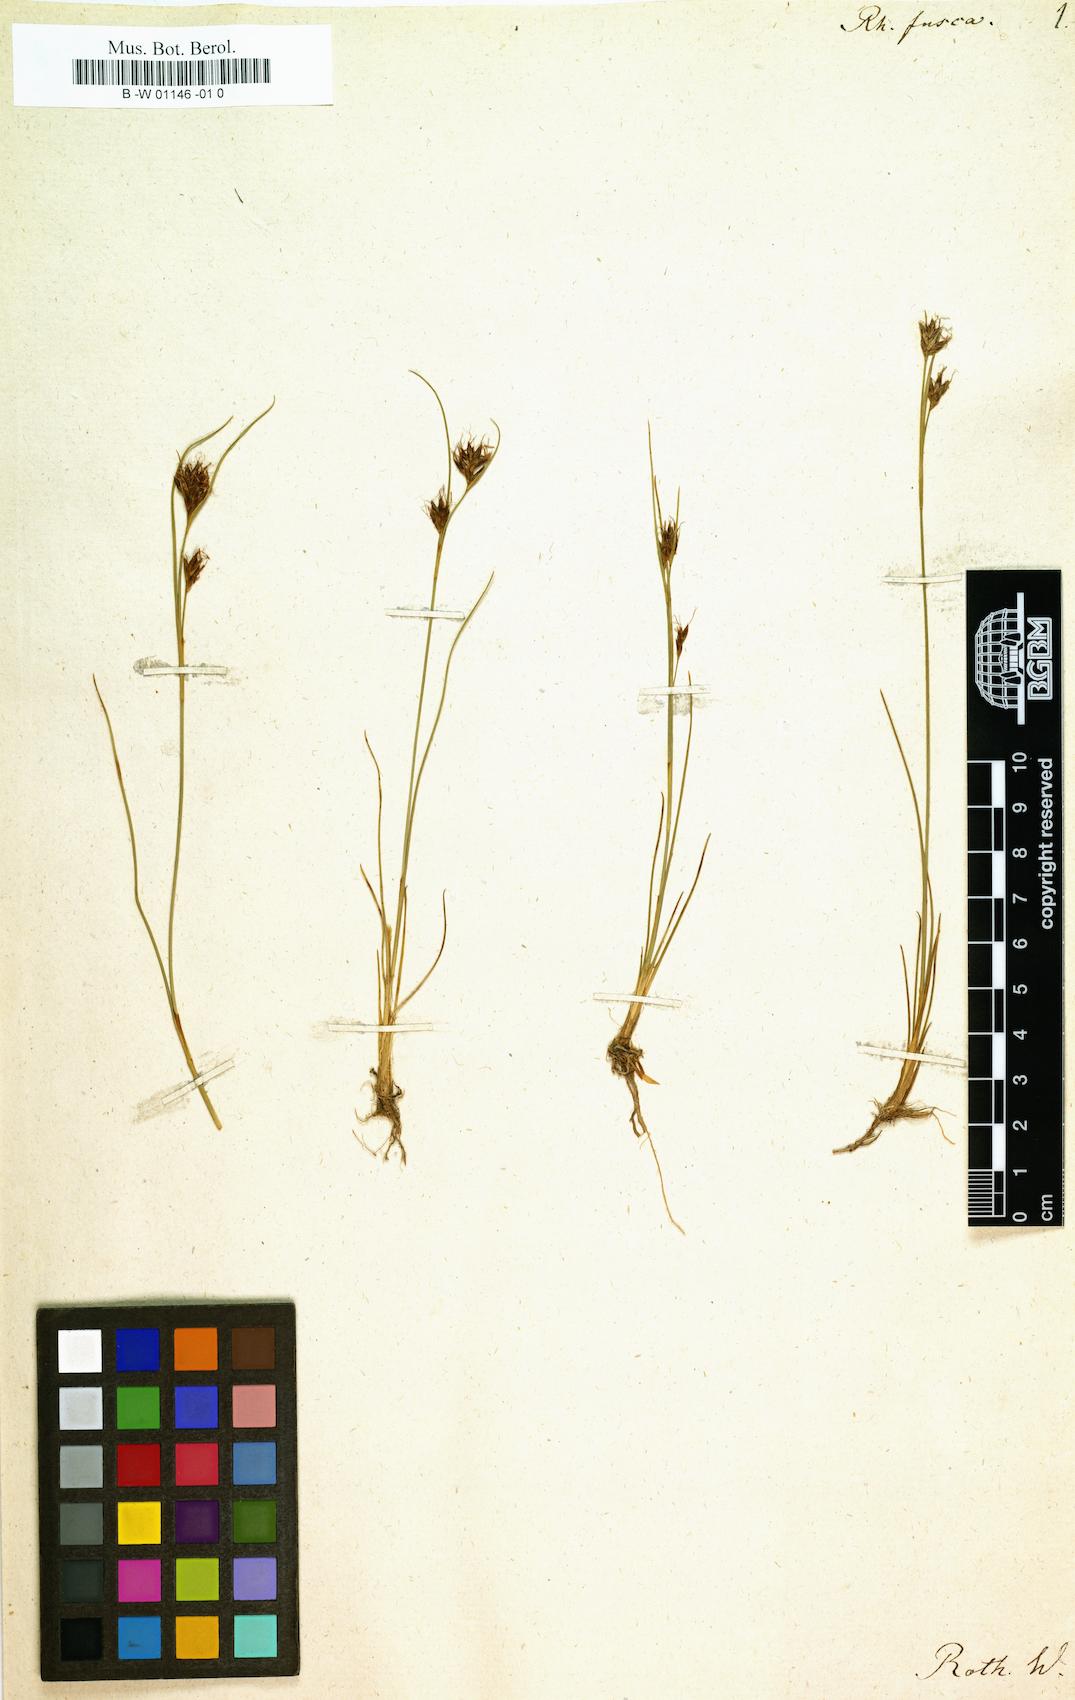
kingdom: Plantae
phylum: Tracheophyta
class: Liliopsida
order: Poales
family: Cyperaceae
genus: Rhynchospora
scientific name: Rhynchospora fusca
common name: Brown beak-sedge
